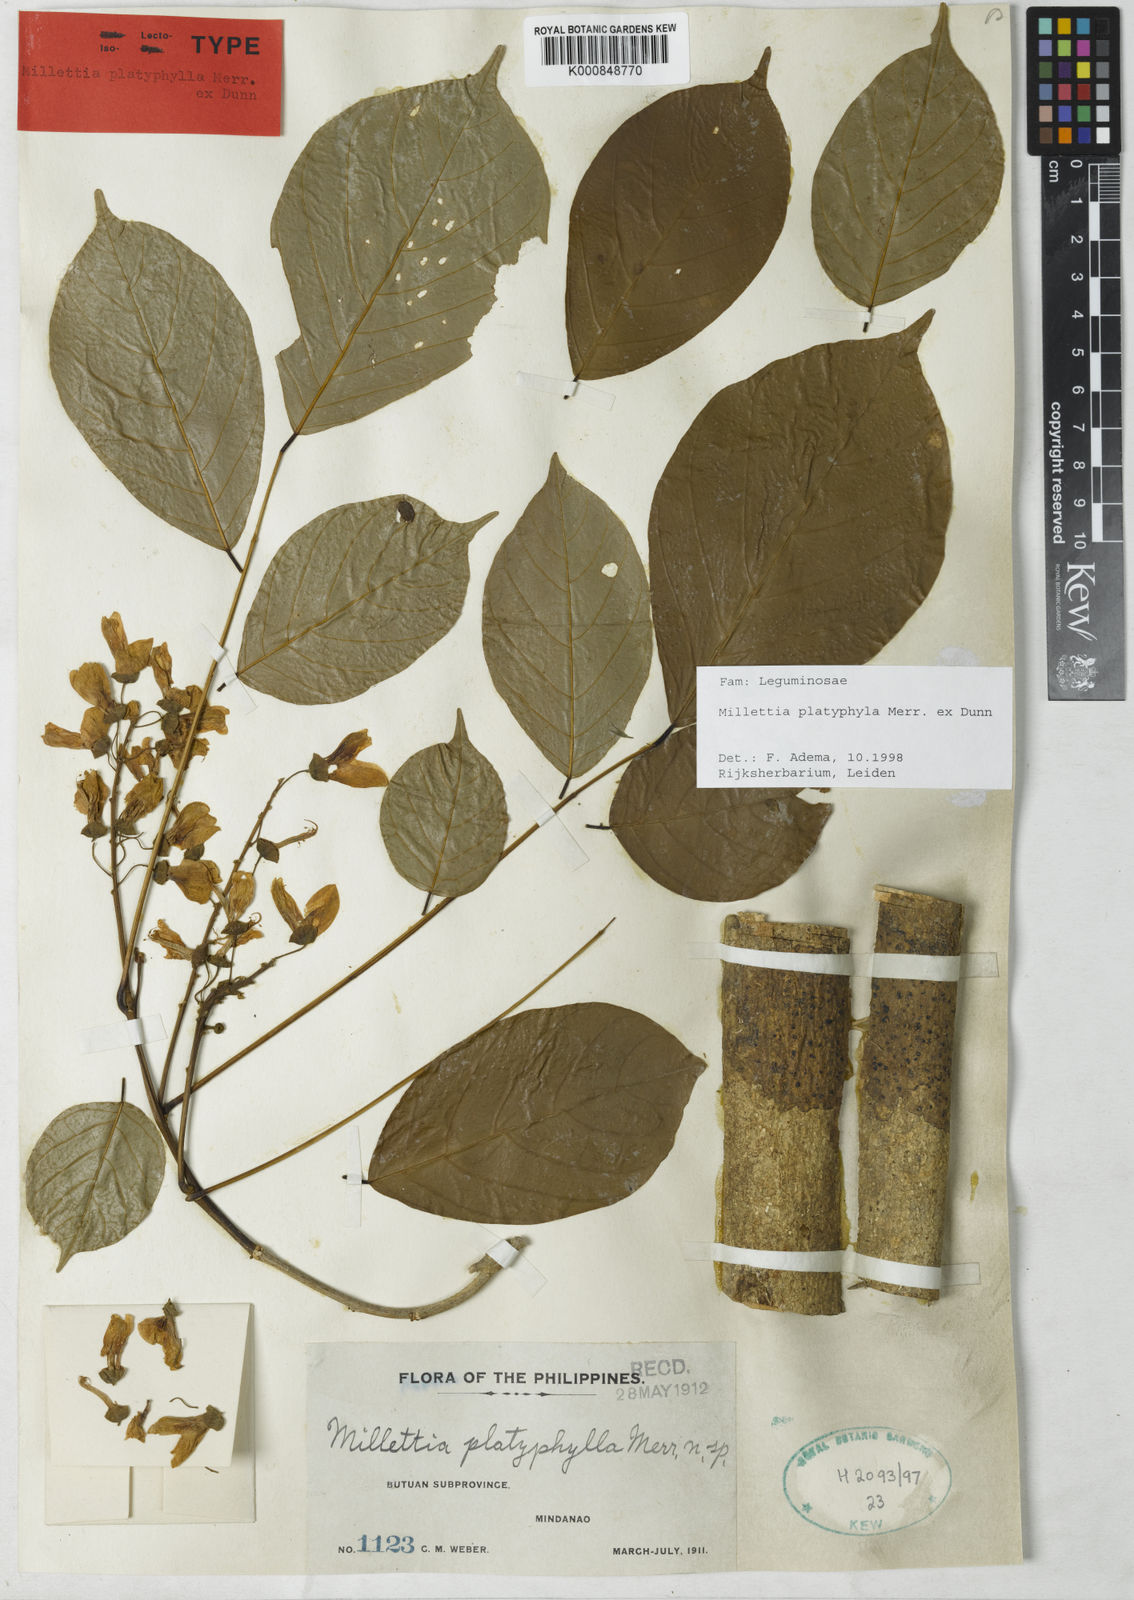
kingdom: Plantae
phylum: Tracheophyta
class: Magnoliopsida
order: Fabales
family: Fabaceae
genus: Millettia
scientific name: Millettia platyphylla
